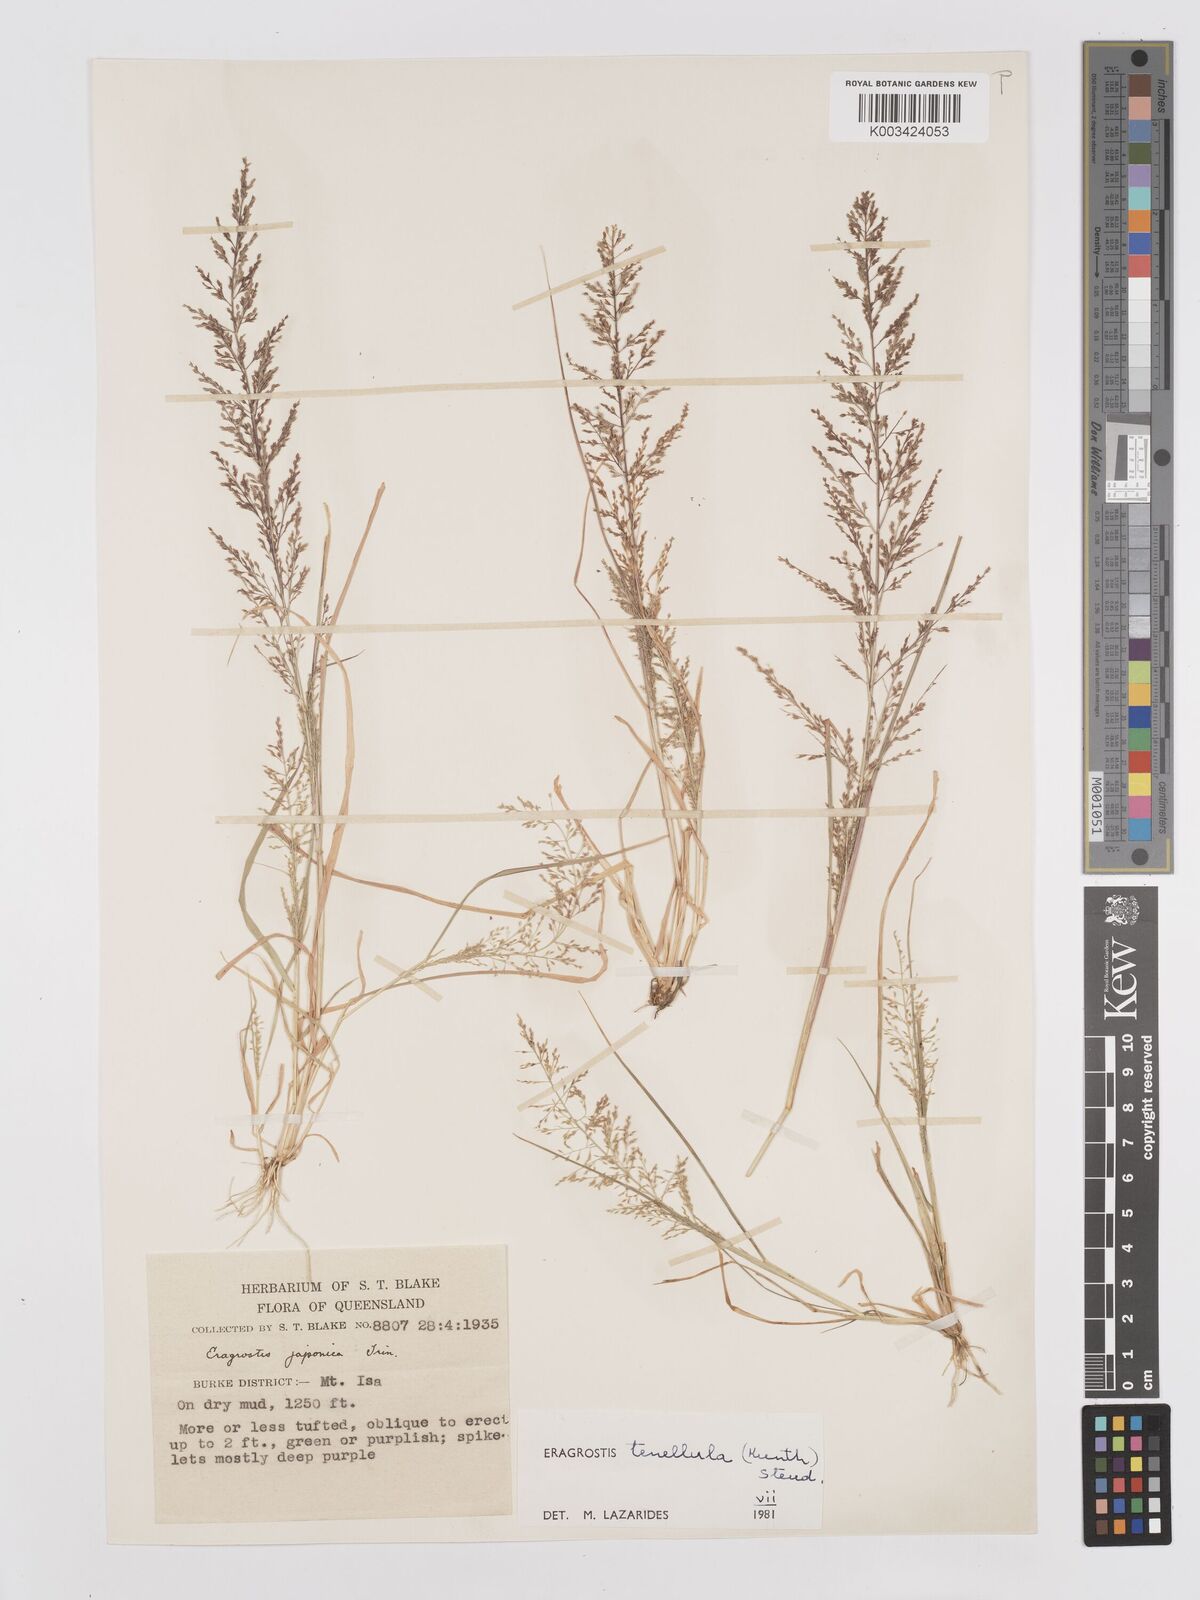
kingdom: Plantae
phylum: Tracheophyta
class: Liliopsida
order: Poales
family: Poaceae
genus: Eragrostis
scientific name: Eragrostis tenellula
